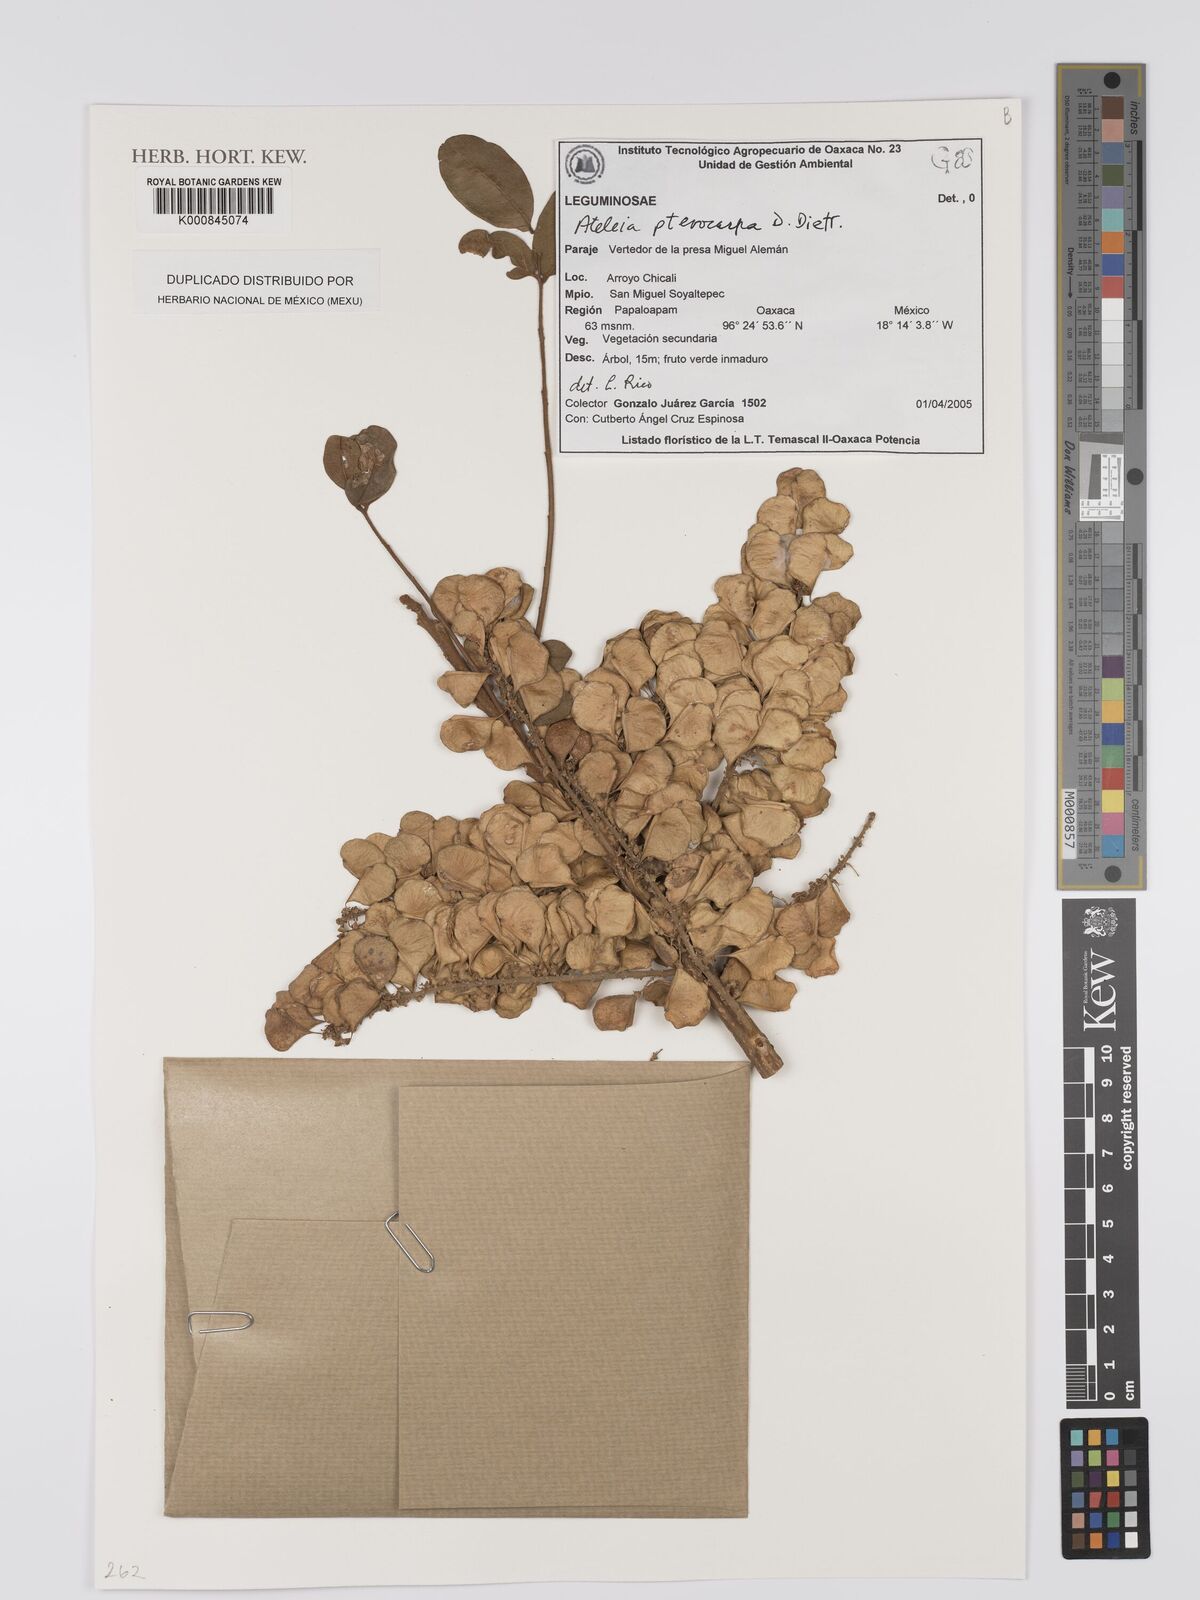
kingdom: Plantae
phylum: Tracheophyta
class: Magnoliopsida
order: Fabales
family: Fabaceae
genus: Ateleia
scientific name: Ateleia
